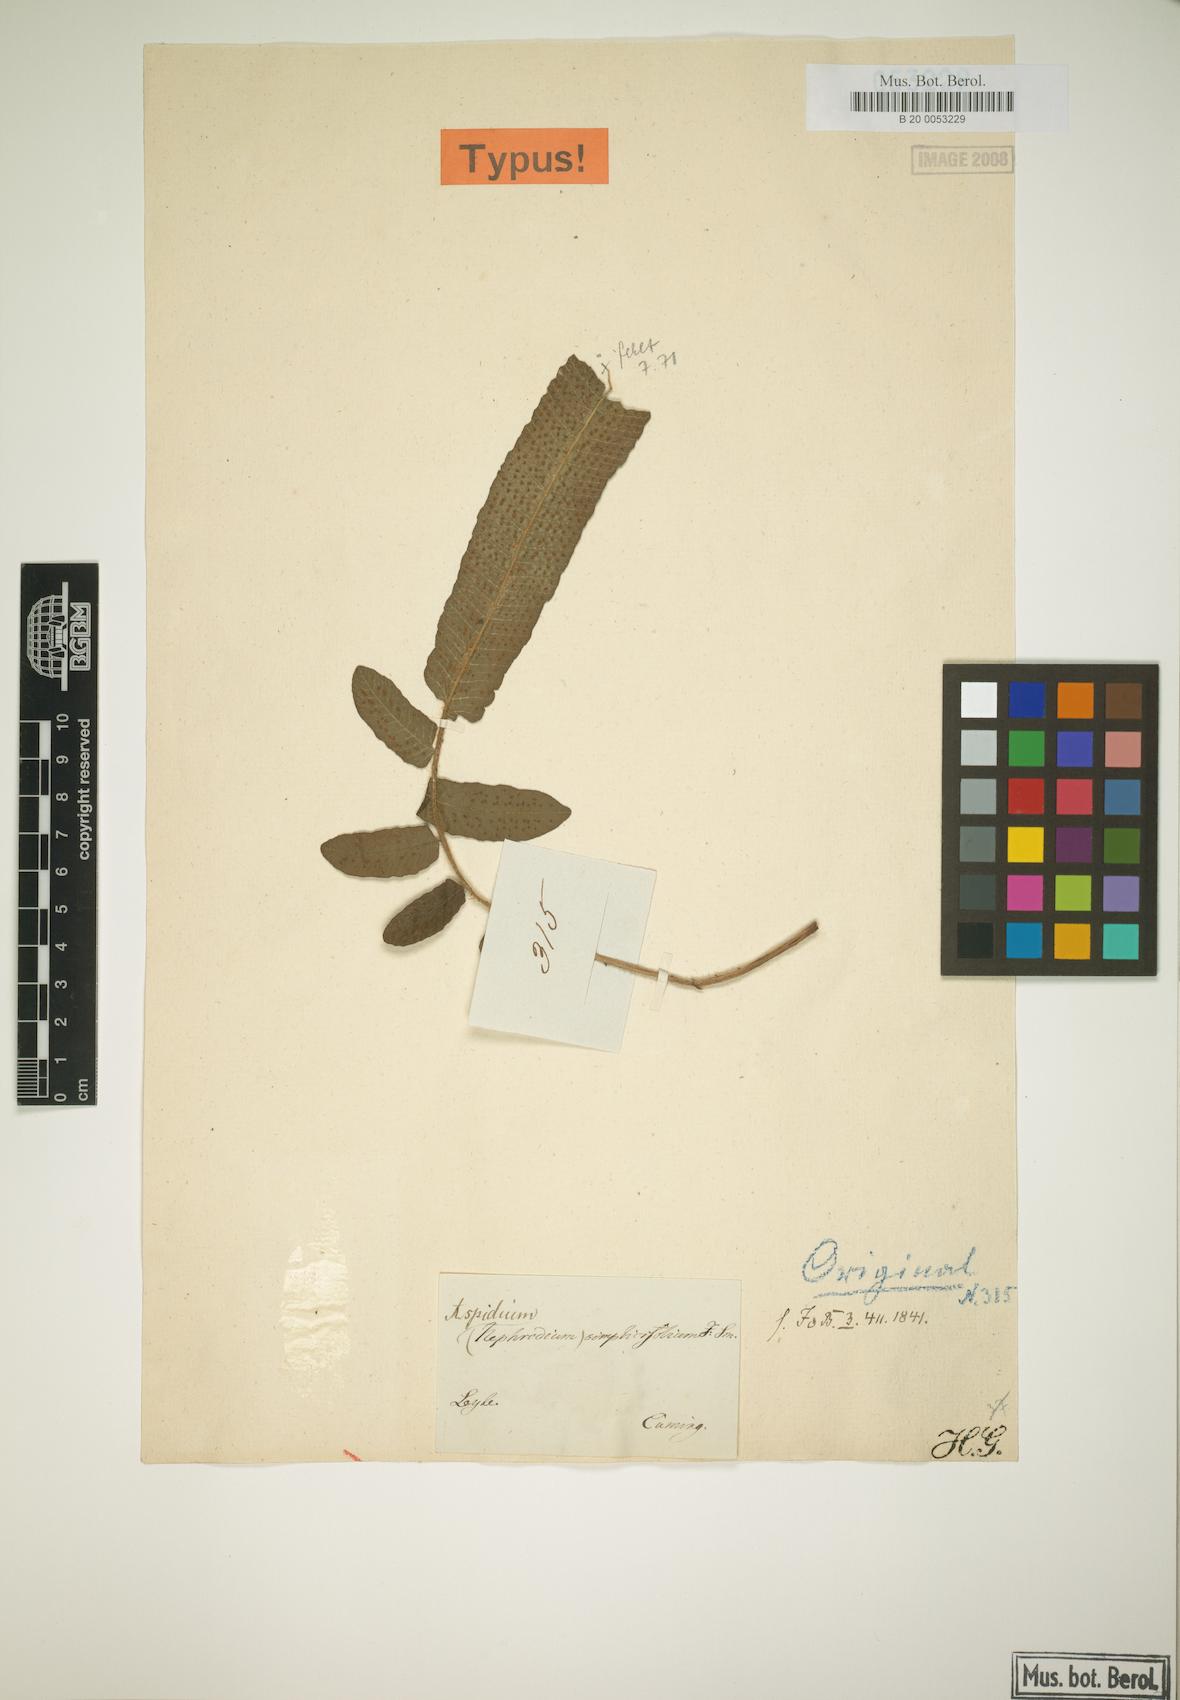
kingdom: Plantae
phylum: Tracheophyta
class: Polypodiopsida
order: Polypodiales
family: Thelypteridaceae
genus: Sphaerostephanos
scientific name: Sphaerostephanos simplicifolius
